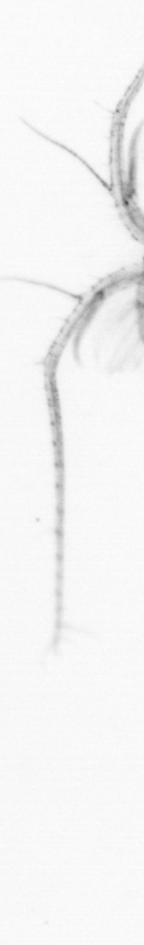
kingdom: Animalia
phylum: Arthropoda
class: Copepoda
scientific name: Copepoda
